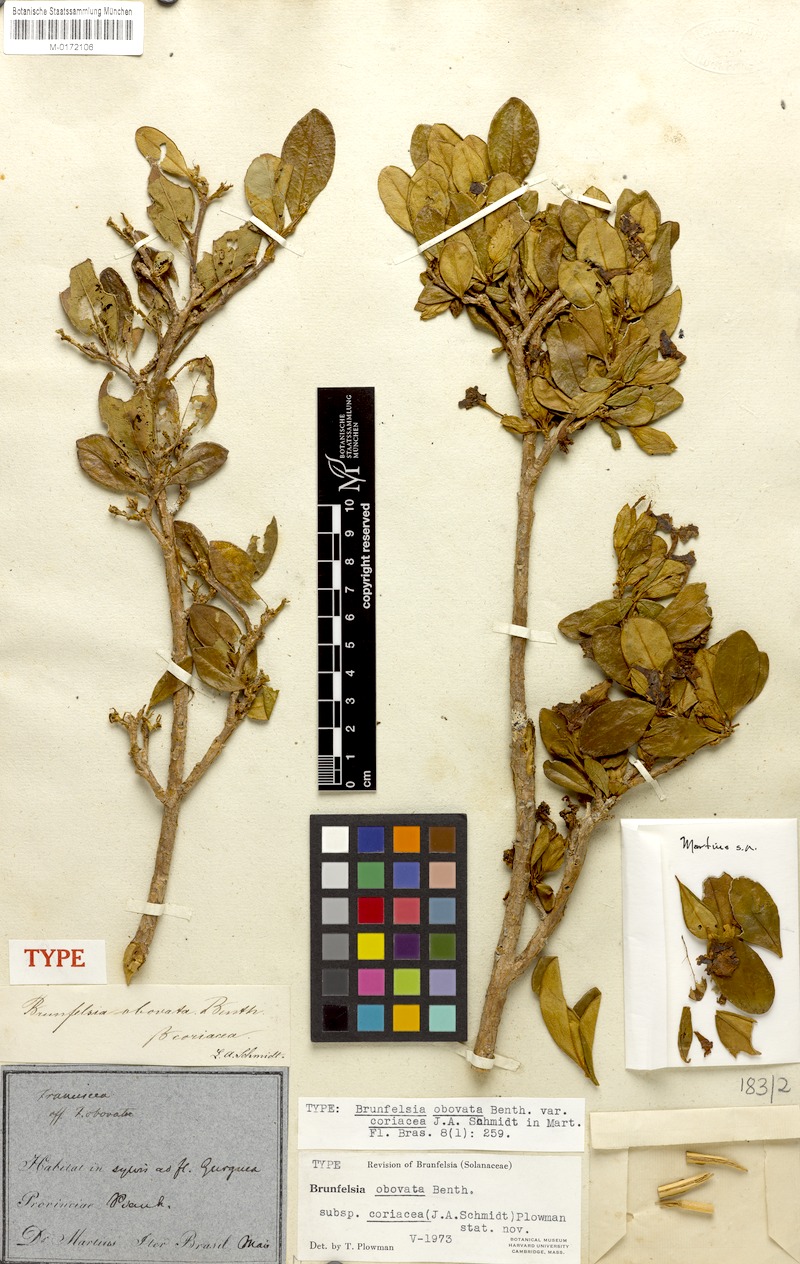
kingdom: Plantae
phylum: Tracheophyta
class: Magnoliopsida
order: Solanales
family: Solanaceae
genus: Brunfelsia
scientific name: Brunfelsia obovata
